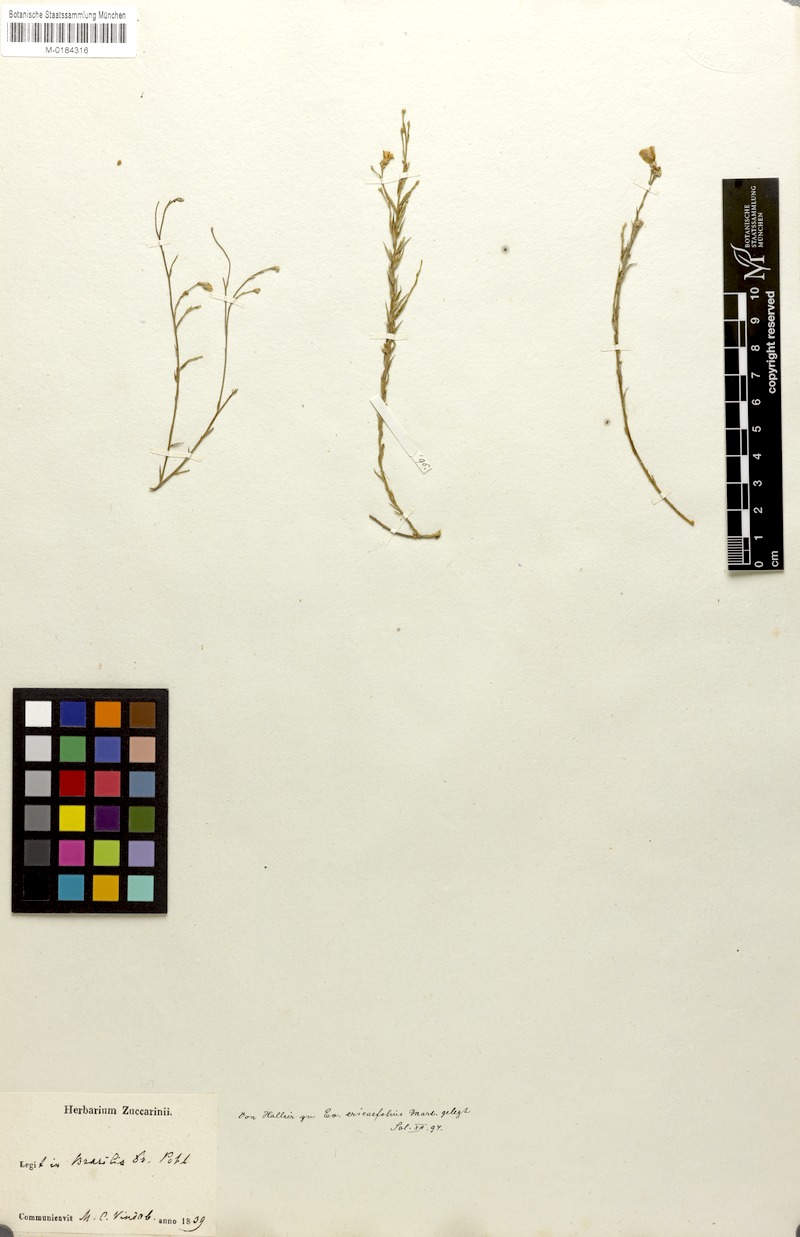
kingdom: Plantae
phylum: Tracheophyta
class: Magnoliopsida
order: Solanales
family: Convolvulaceae
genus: Evolvulus
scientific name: Evolvulus ericifolius
